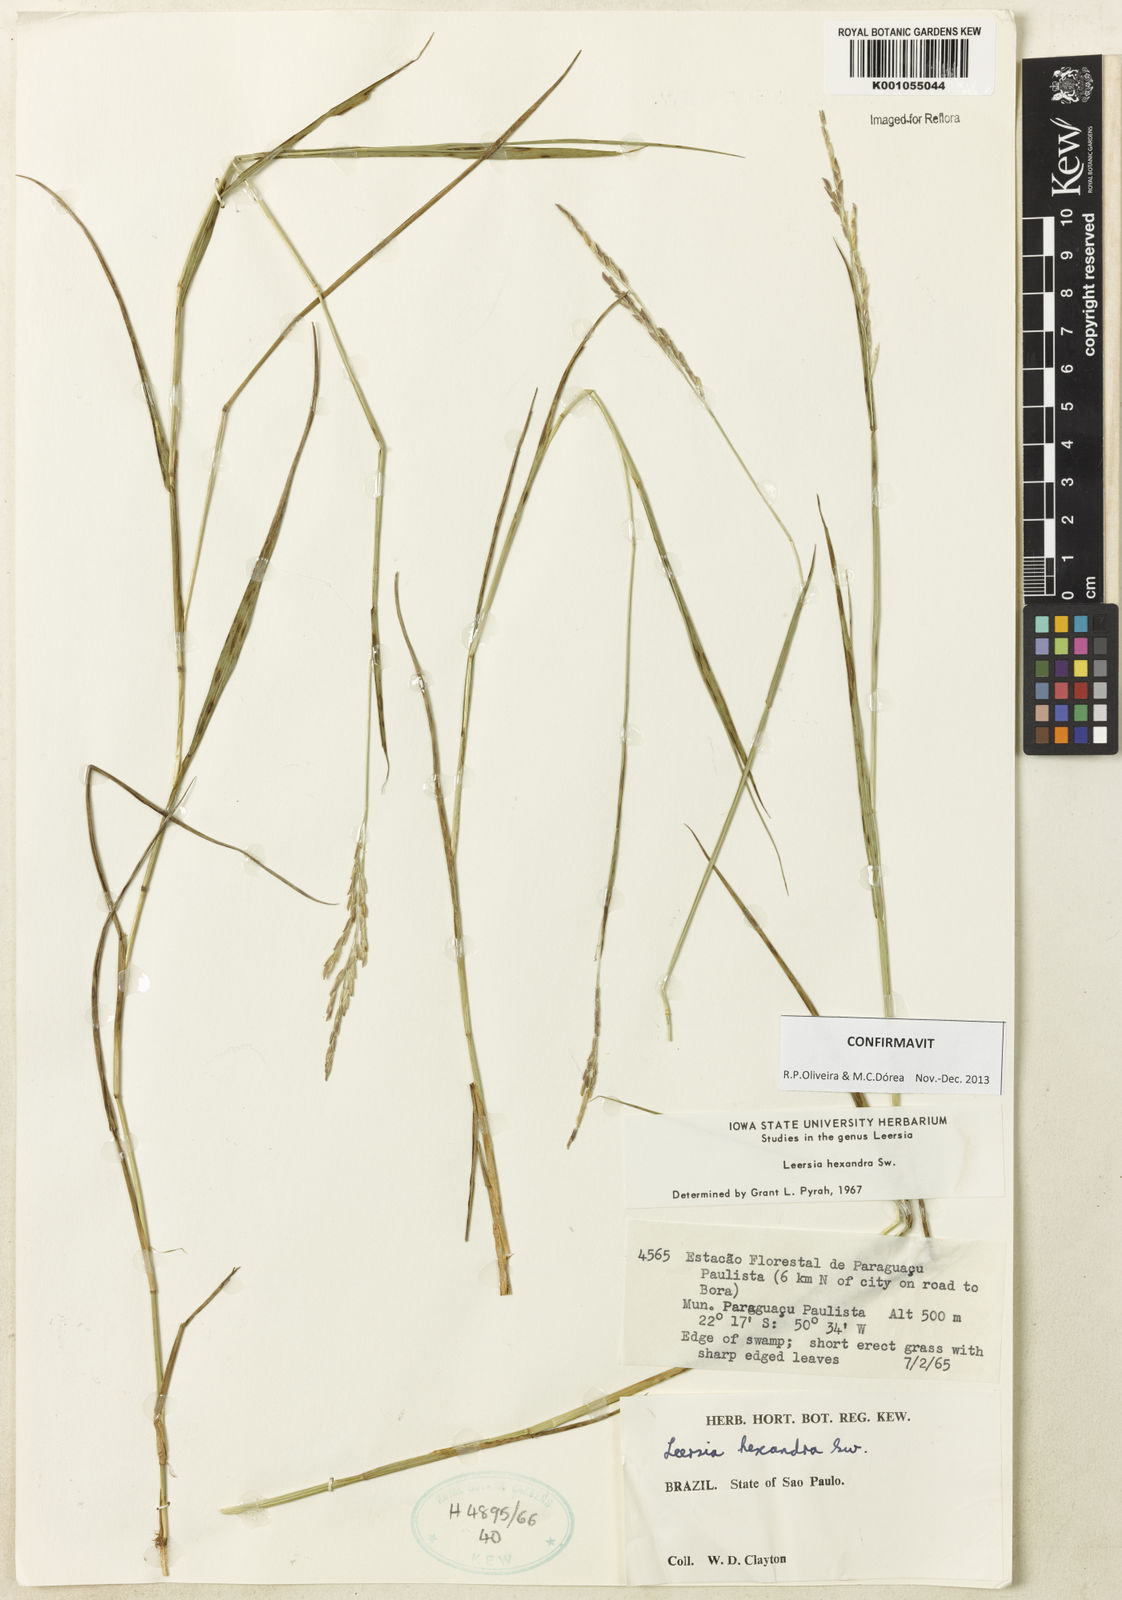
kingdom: Plantae
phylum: Tracheophyta
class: Liliopsida
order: Poales
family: Poaceae
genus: Leersia
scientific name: Leersia hexandra
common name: Southern cut grass
